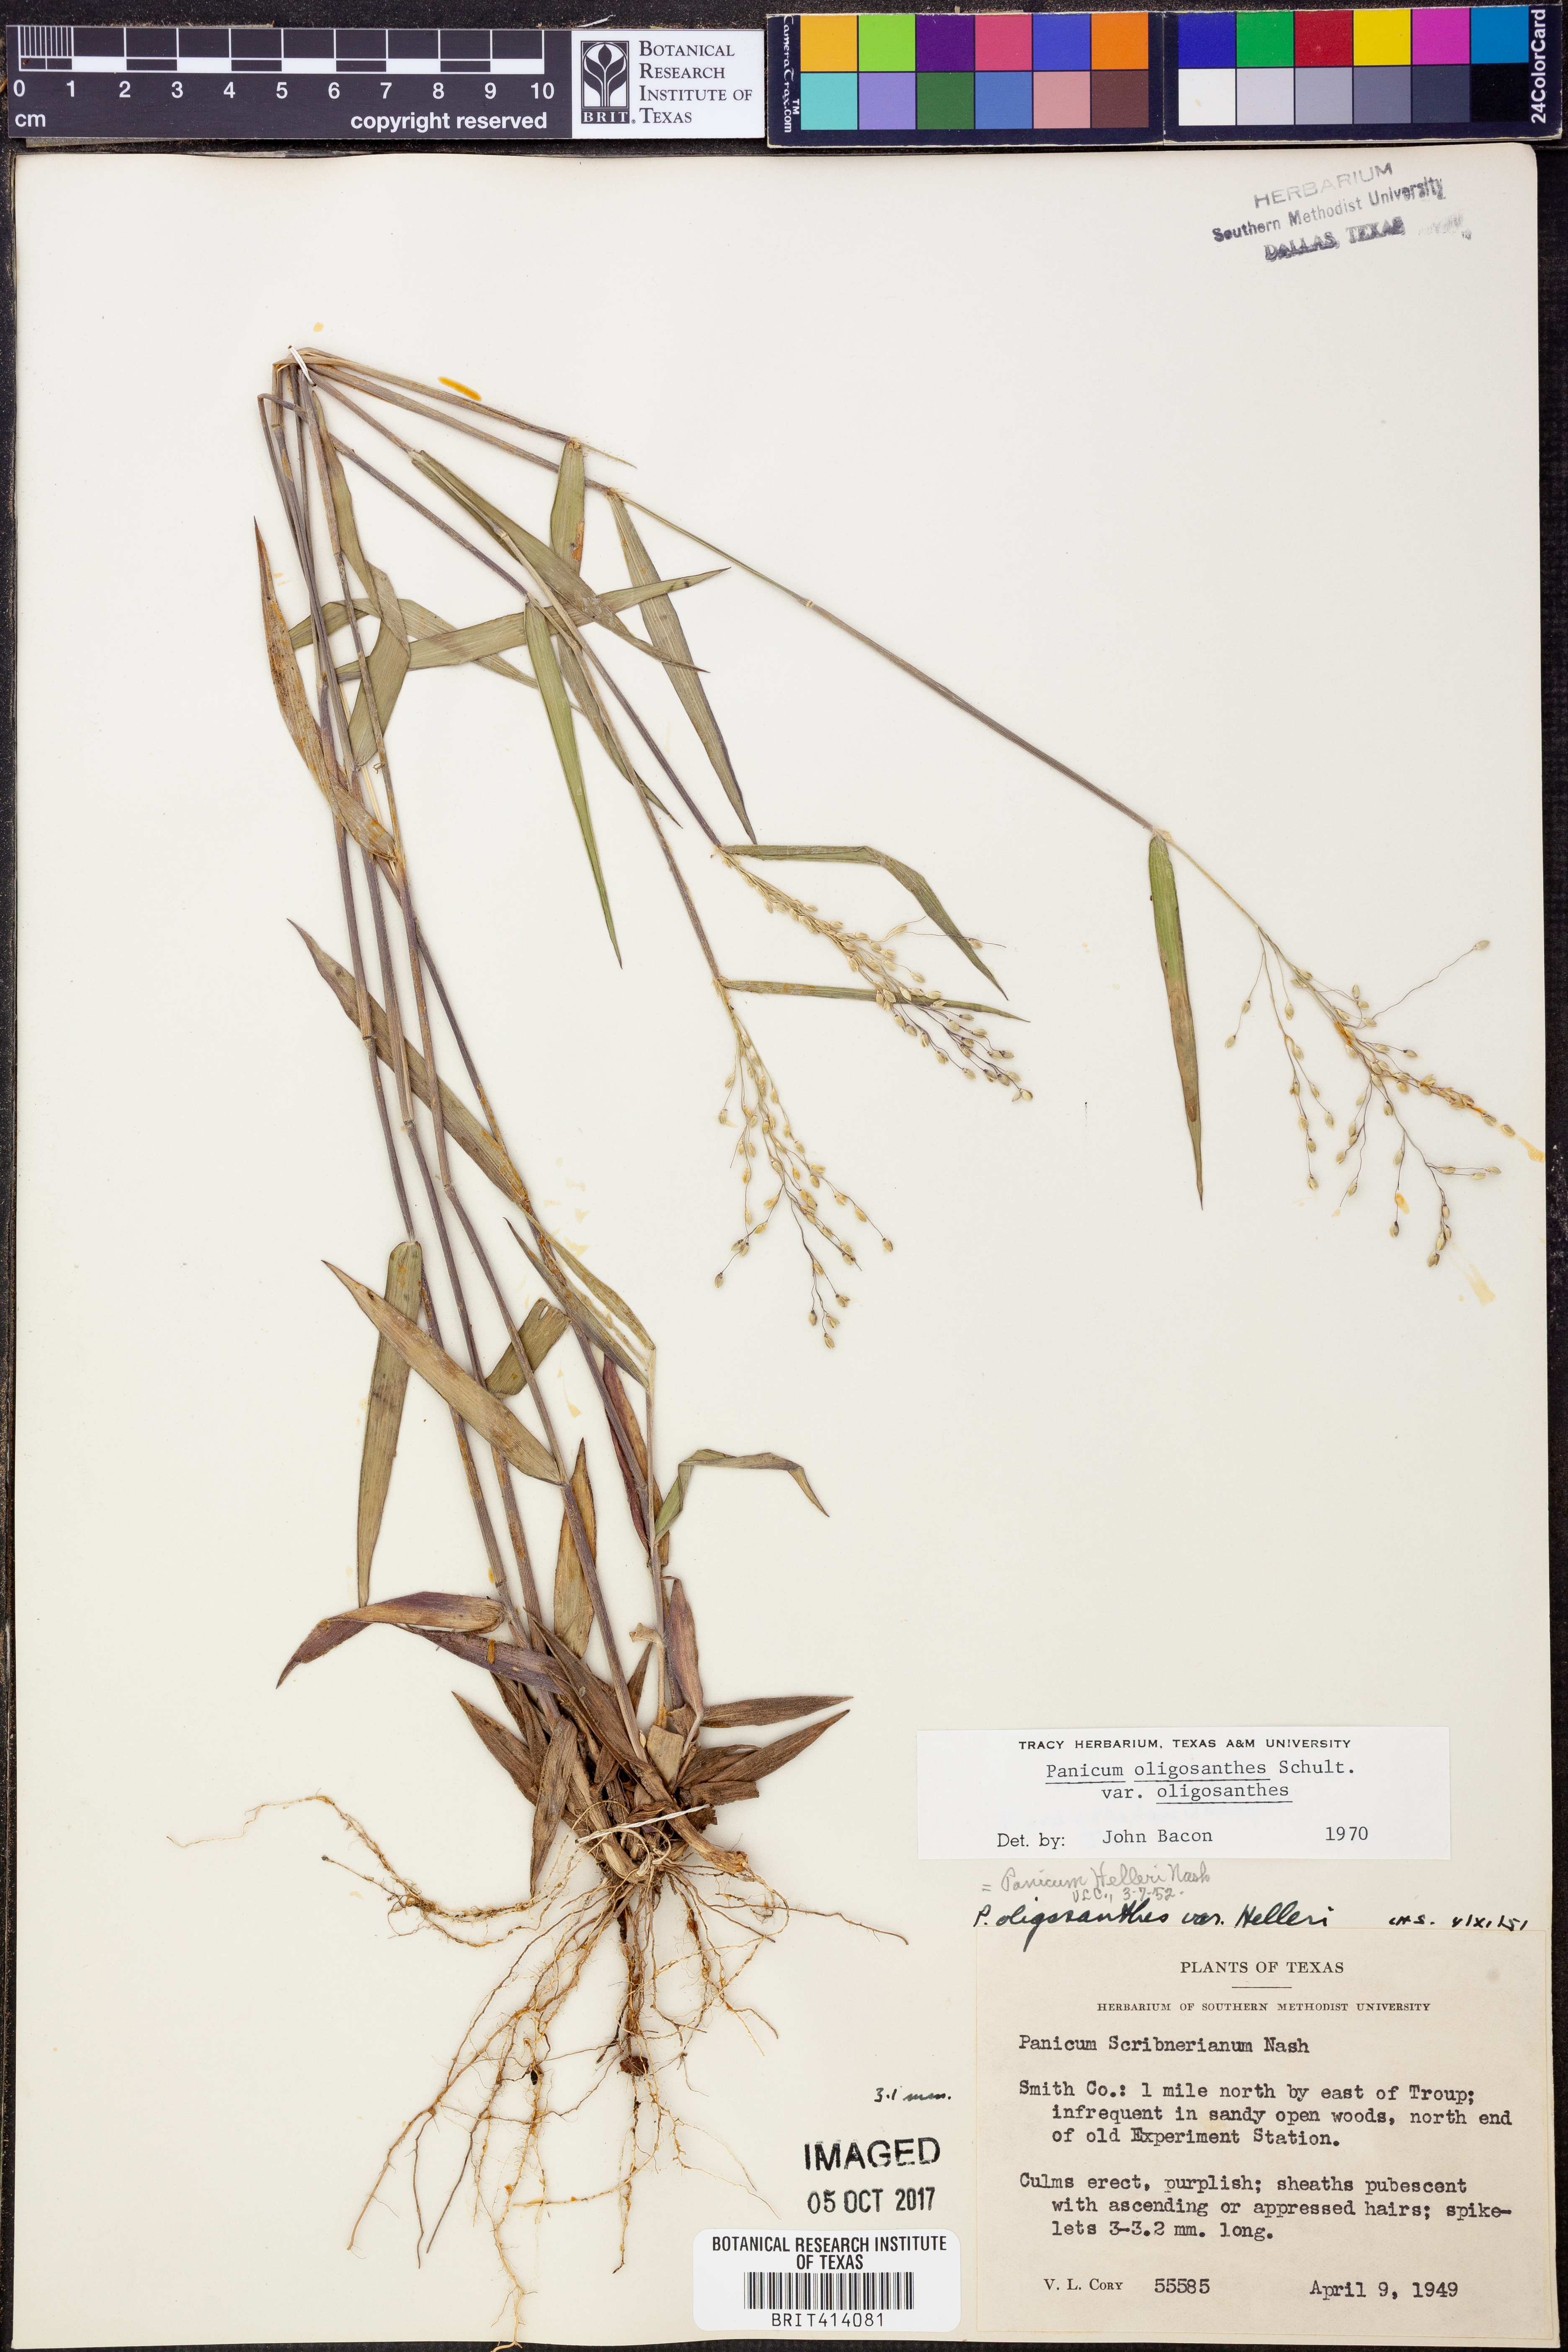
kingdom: Plantae
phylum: Tracheophyta
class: Liliopsida
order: Poales
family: Poaceae
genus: Dichanthelium
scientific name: Dichanthelium oligosanthes
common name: Few-anther obscuregrass
